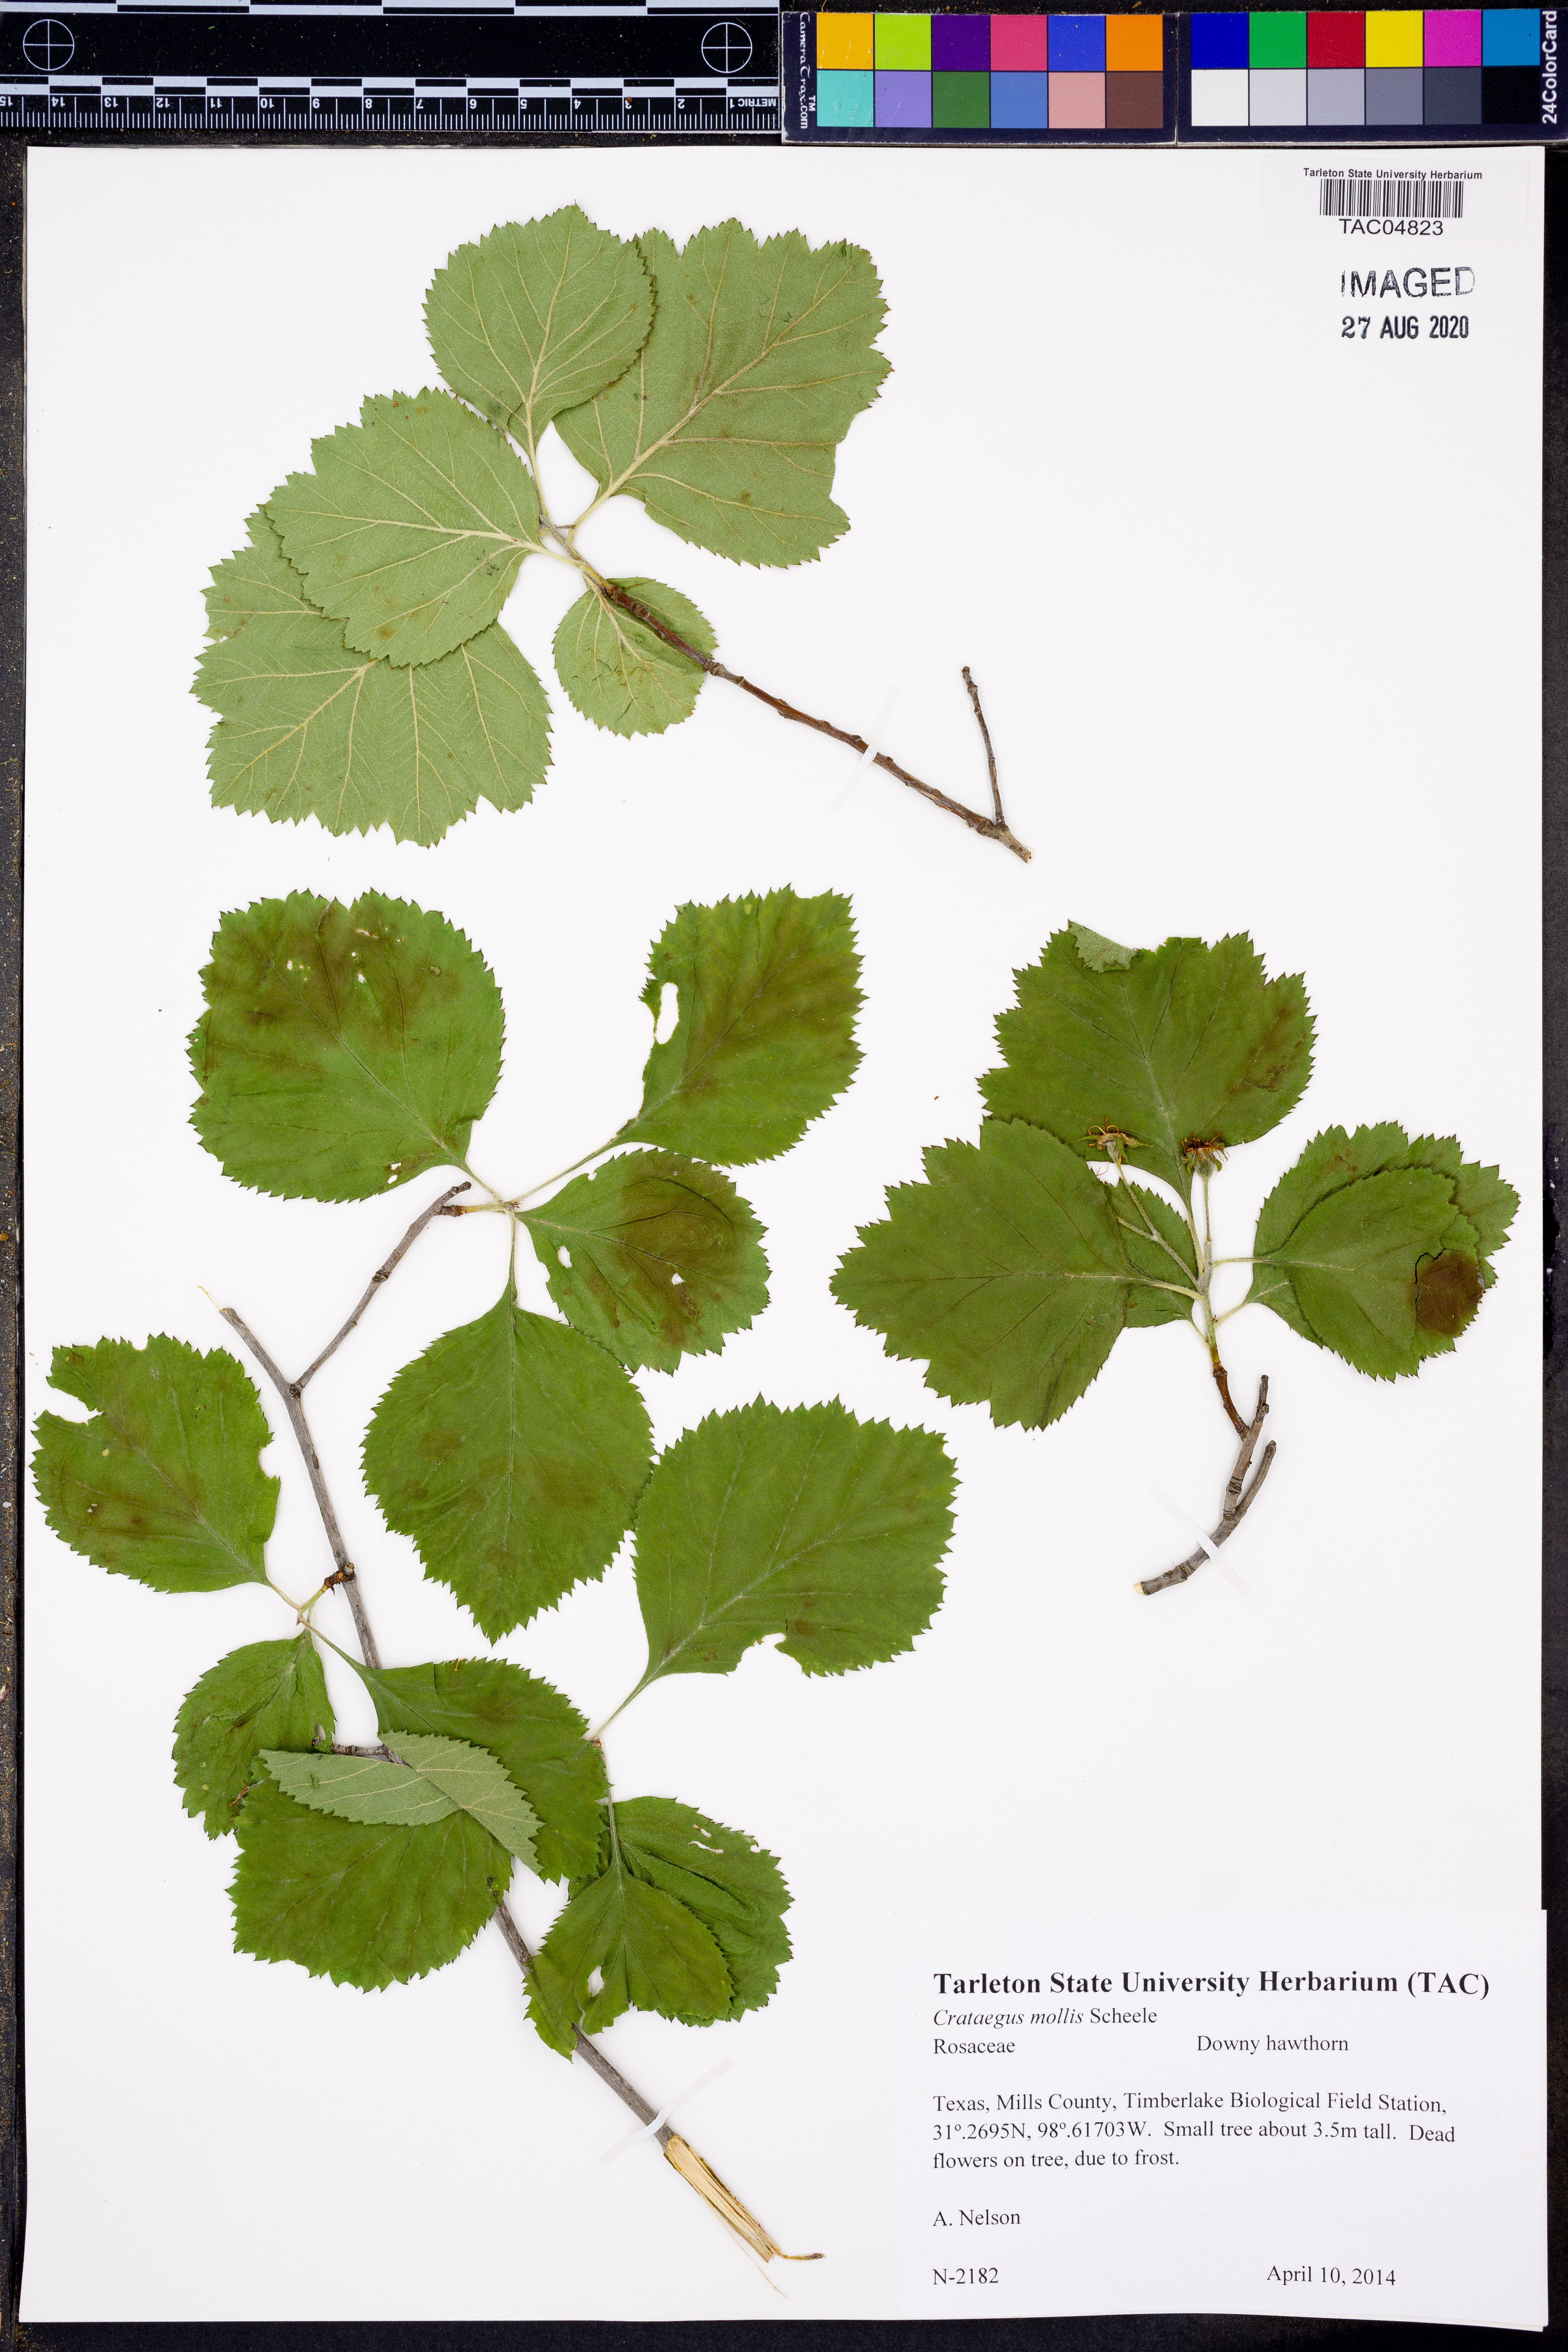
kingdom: Plantae
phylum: Tracheophyta
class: Magnoliopsida
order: Rosales
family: Rosaceae
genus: Crataegus
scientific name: Crataegus mollis
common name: Downy hawthorn
